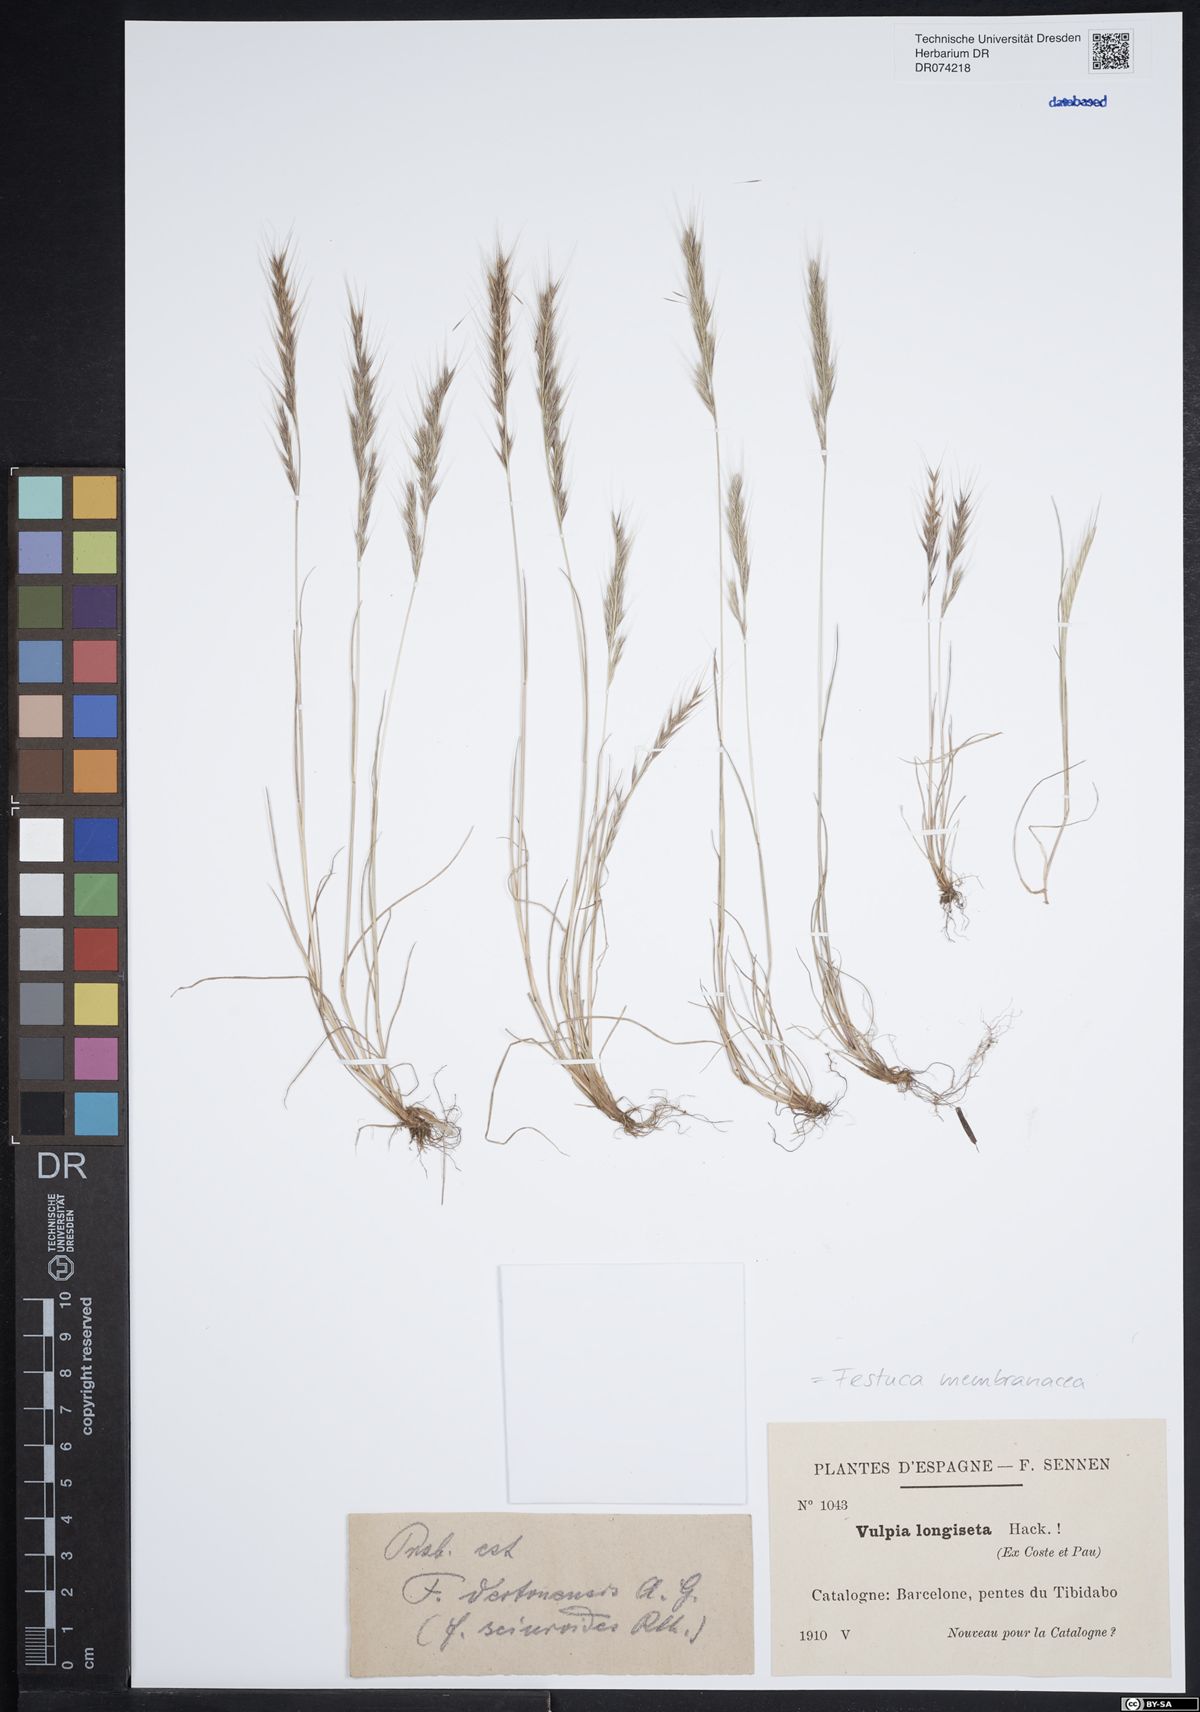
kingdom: Plantae
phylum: Tracheophyta
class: Liliopsida
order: Poales
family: Poaceae
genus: Festuca
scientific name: Festuca membranacea
